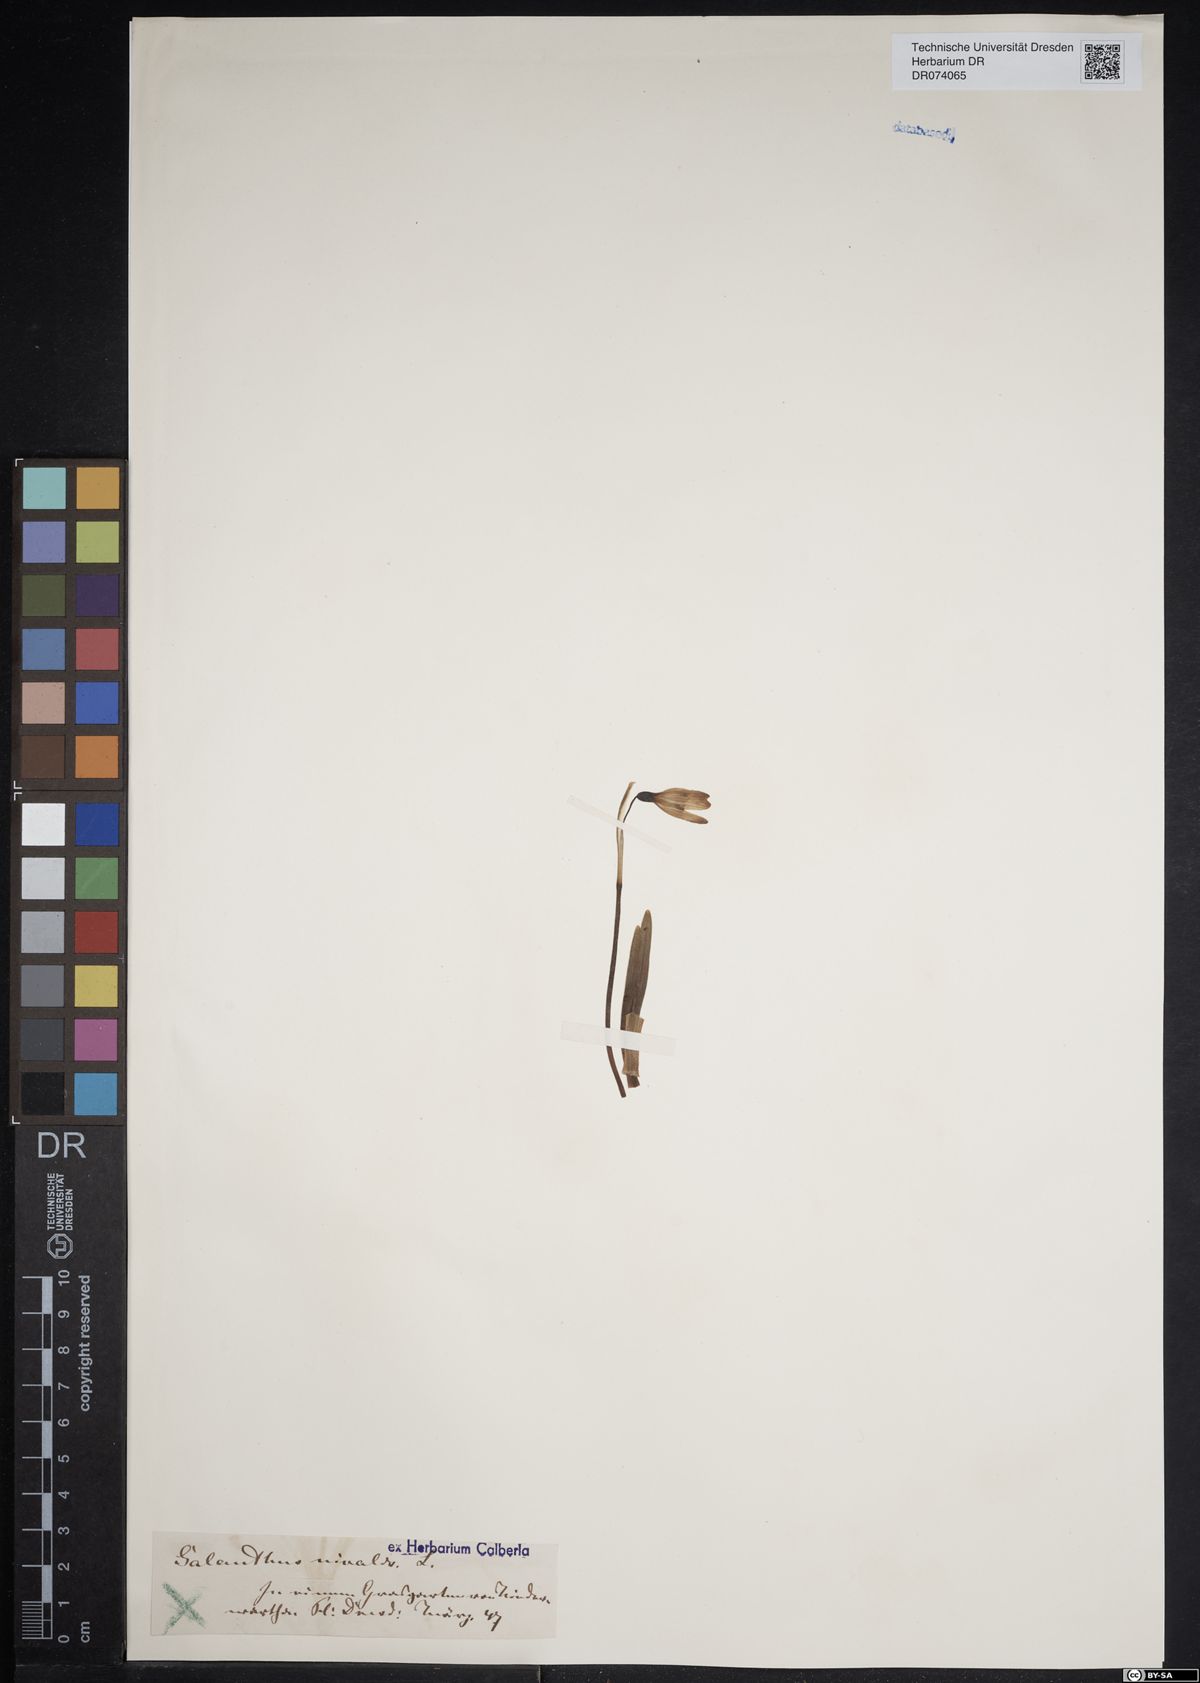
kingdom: Plantae
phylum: Tracheophyta
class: Liliopsida
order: Asparagales
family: Amaryllidaceae
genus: Galanthus
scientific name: Galanthus nivalis
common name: Snowdrop
